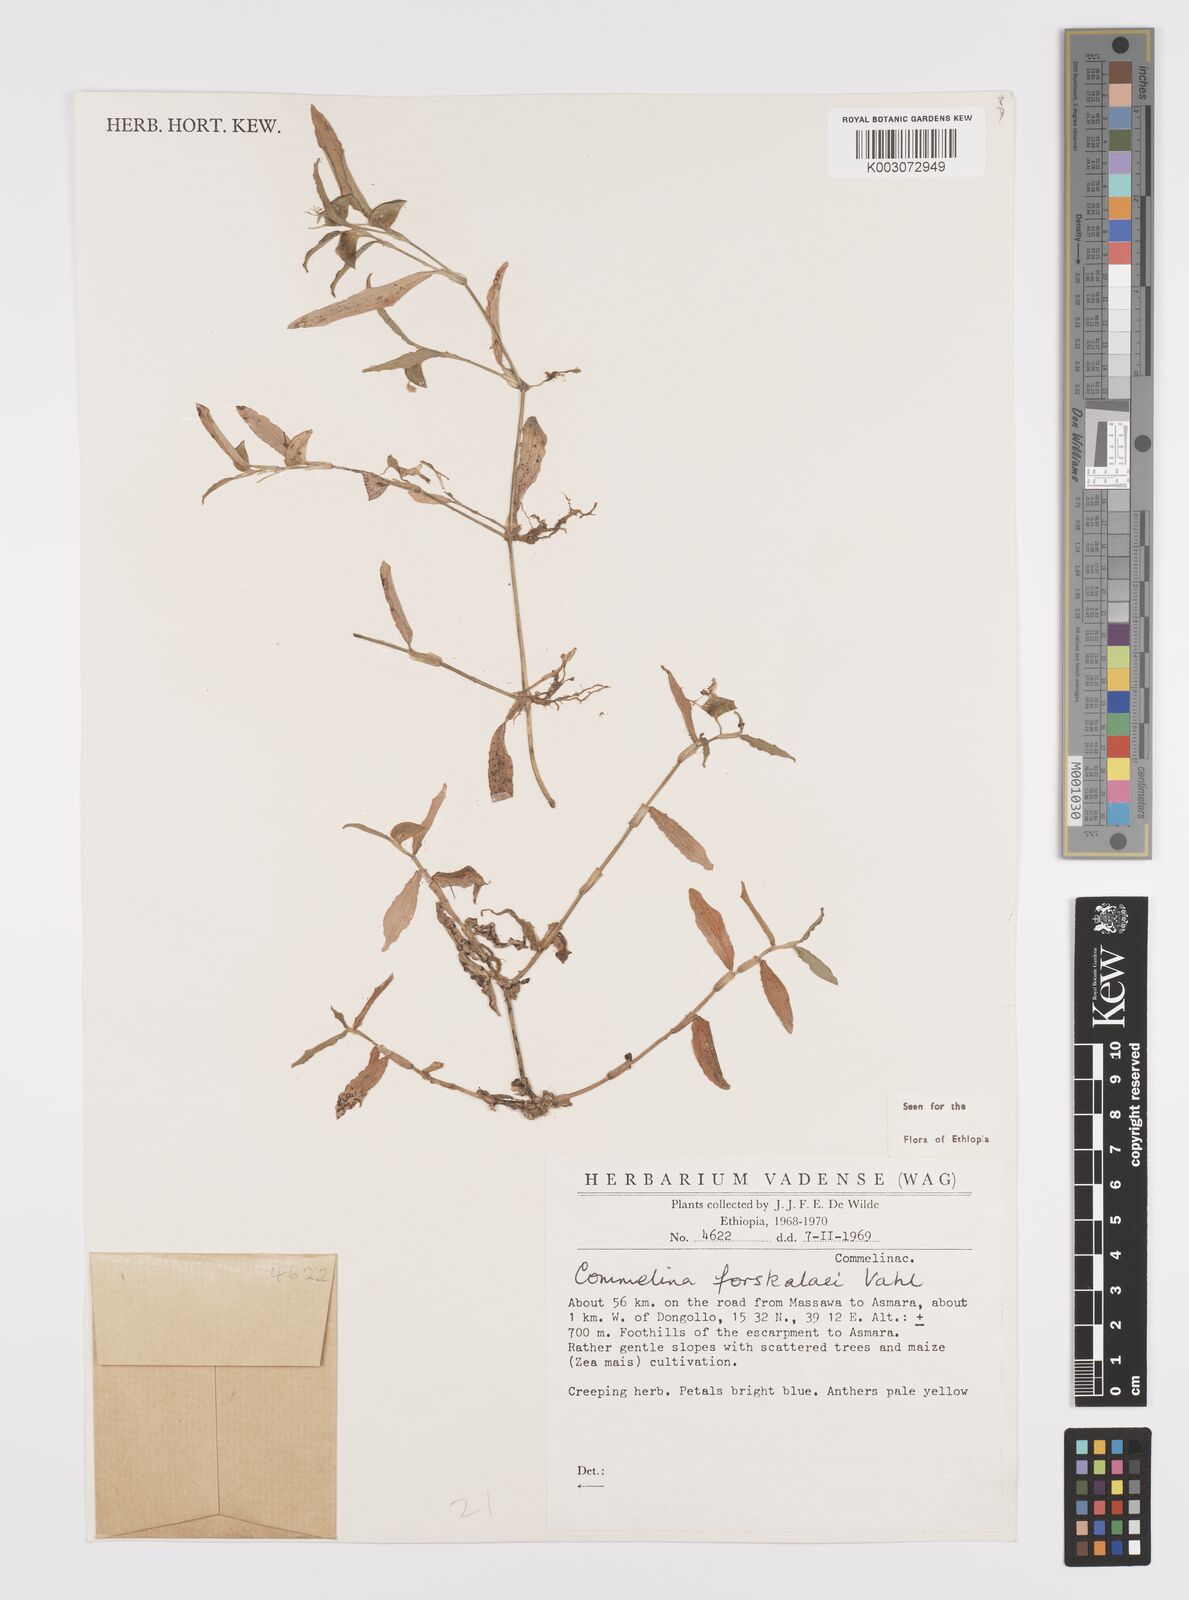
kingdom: Plantae
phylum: Tracheophyta
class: Liliopsida
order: Commelinales
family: Commelinaceae
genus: Commelina
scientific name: Commelina forskaolii
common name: Rat's ear
